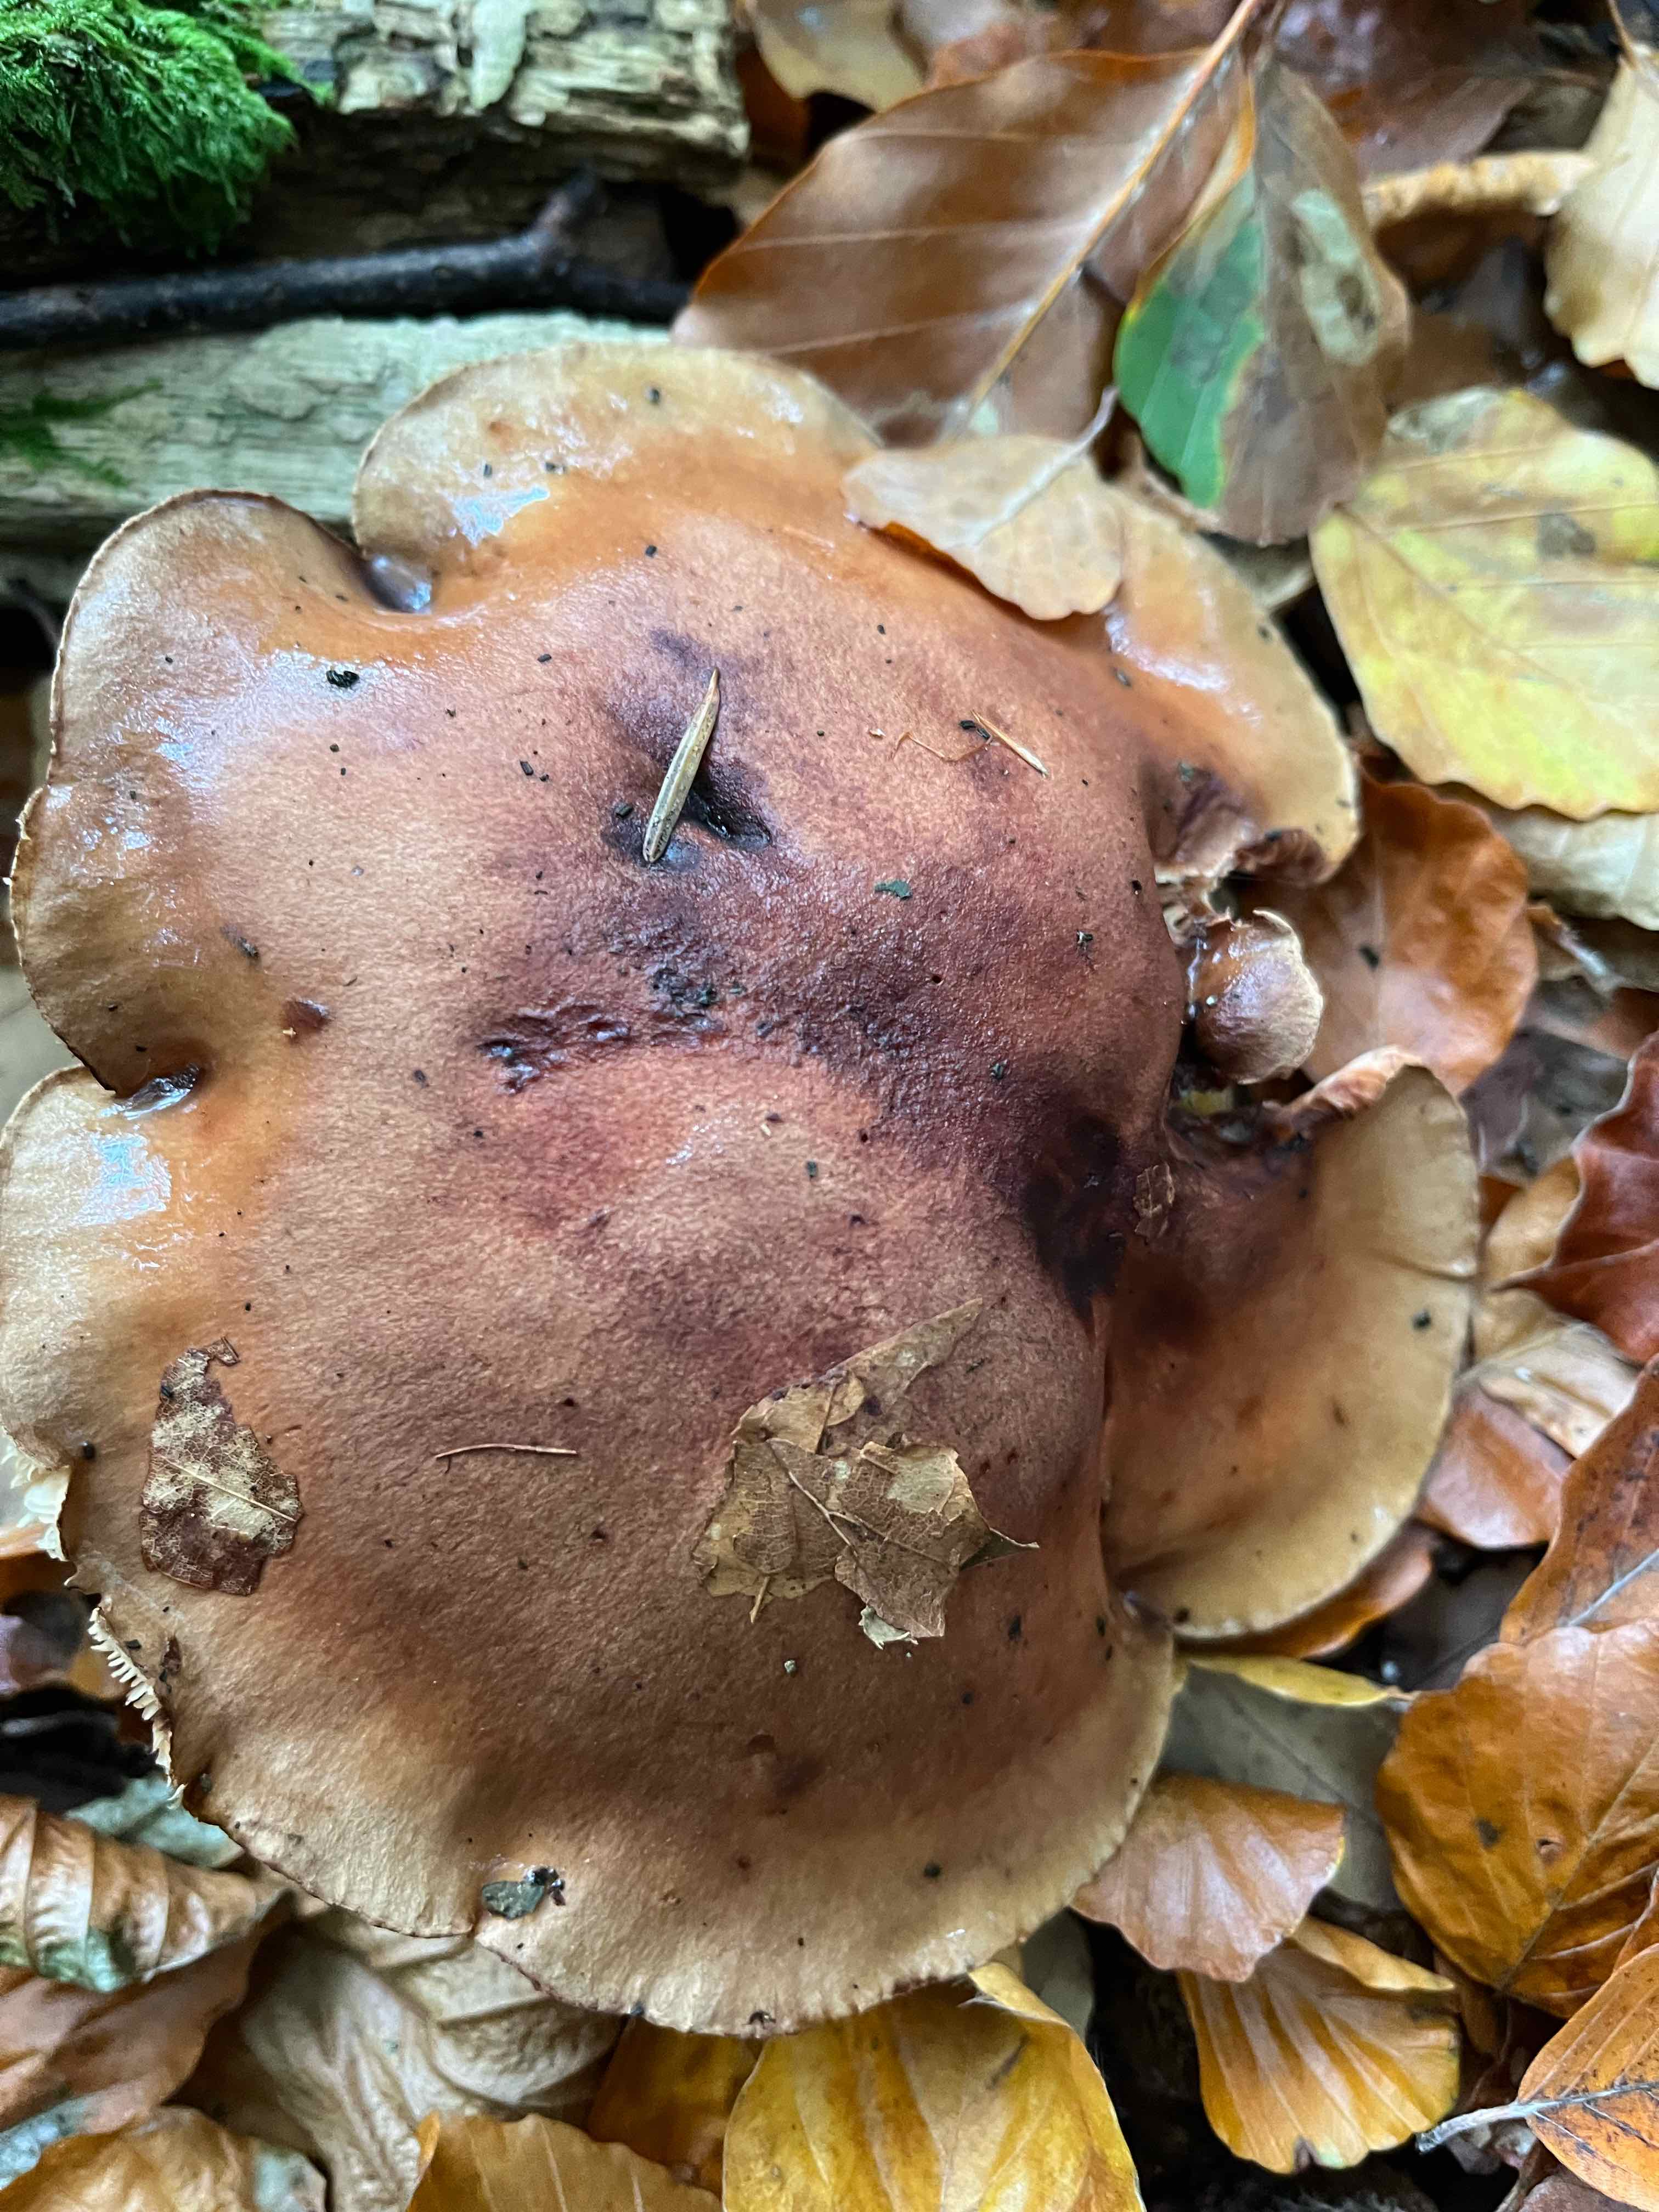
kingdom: Fungi
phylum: Basidiomycota
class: Agaricomycetes
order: Agaricales
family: Tricholomataceae
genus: Tricholoma
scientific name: Tricholoma ustale
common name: sveden ridderhat
